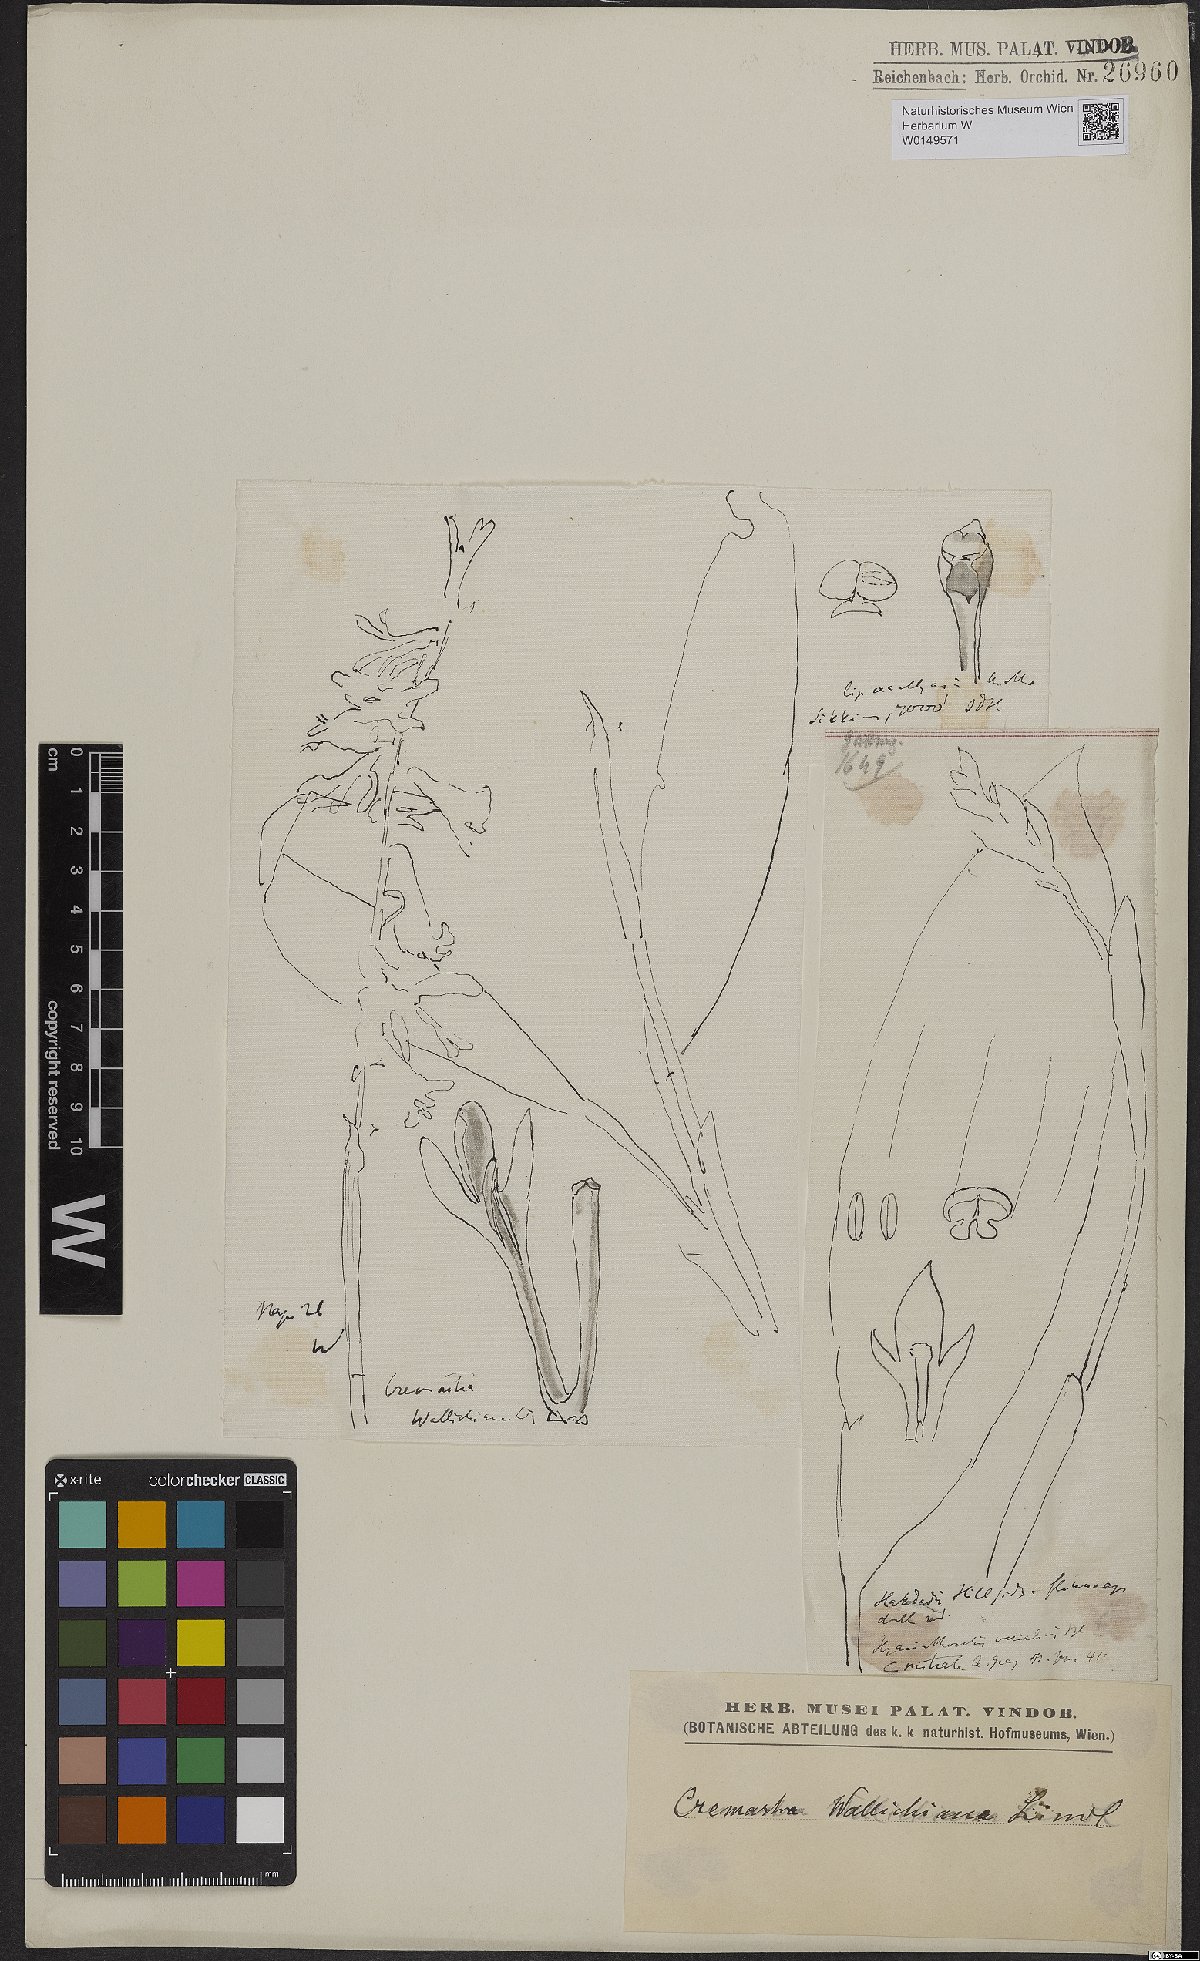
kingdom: Plantae
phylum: Tracheophyta
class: Liliopsida
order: Asparagales
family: Orchidaceae
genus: Cremastra
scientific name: Cremastra appendiculata
